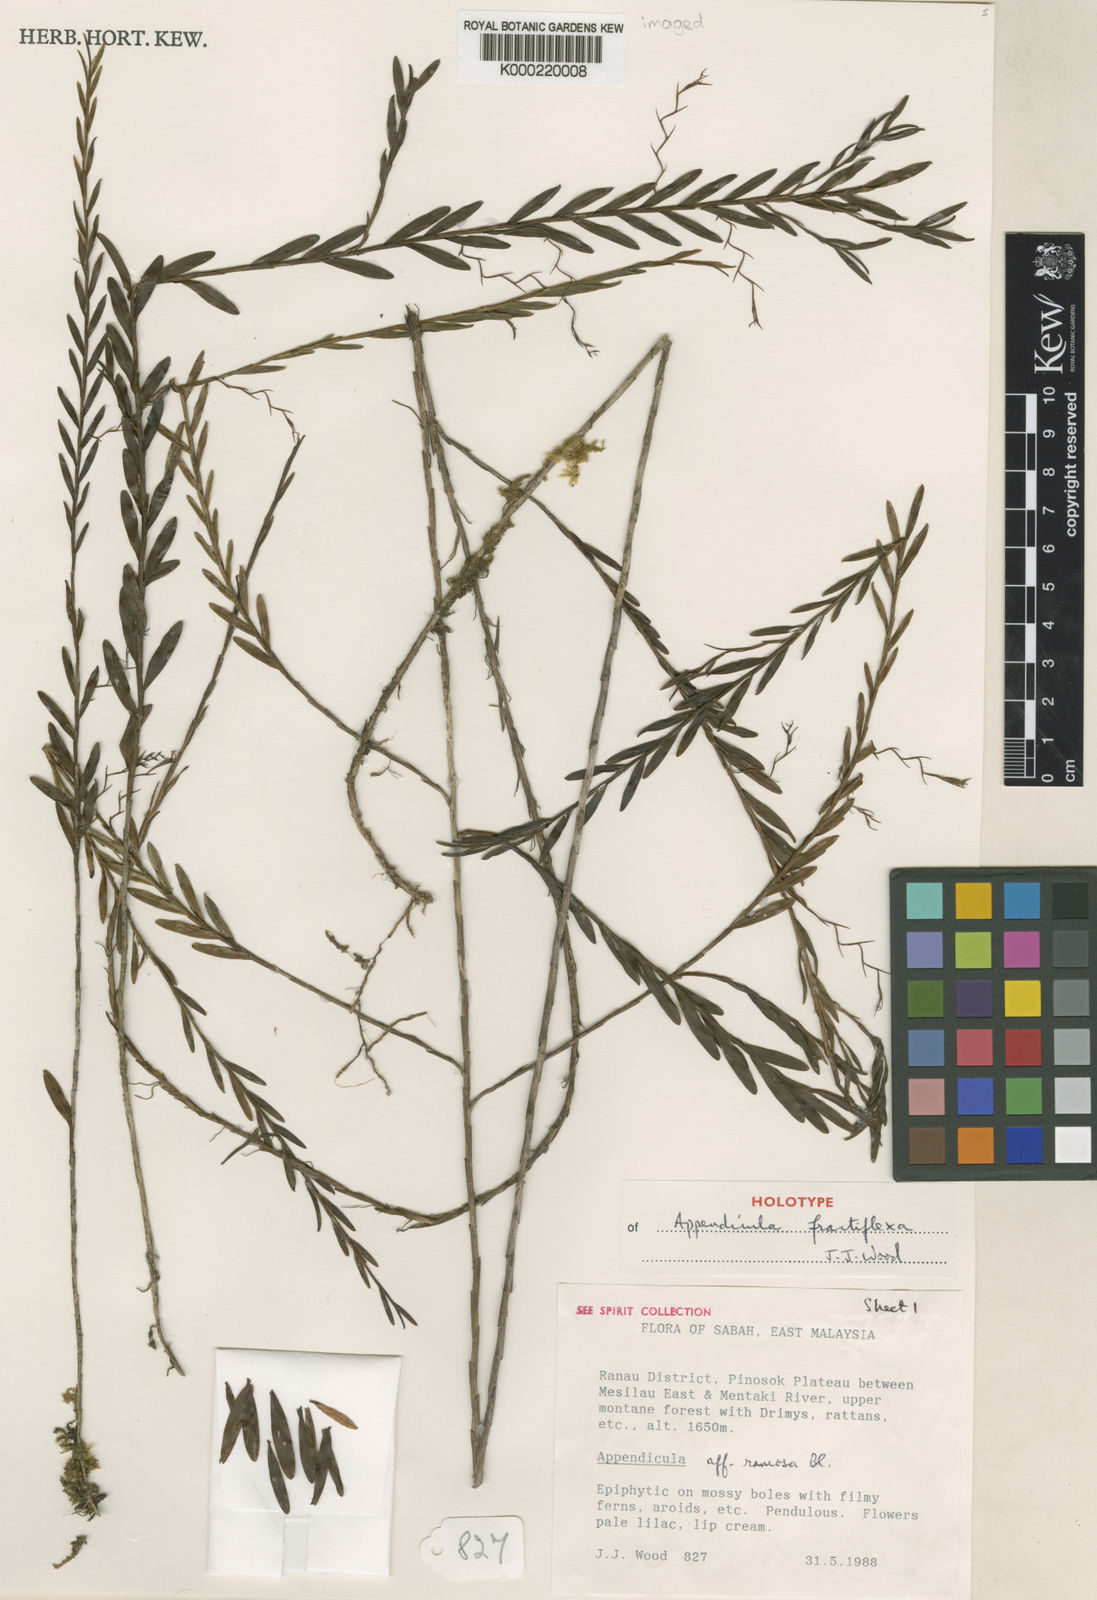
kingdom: Plantae
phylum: Tracheophyta
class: Liliopsida
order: Asparagales
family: Orchidaceae
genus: Appendicula
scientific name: Appendicula fractiflexa
